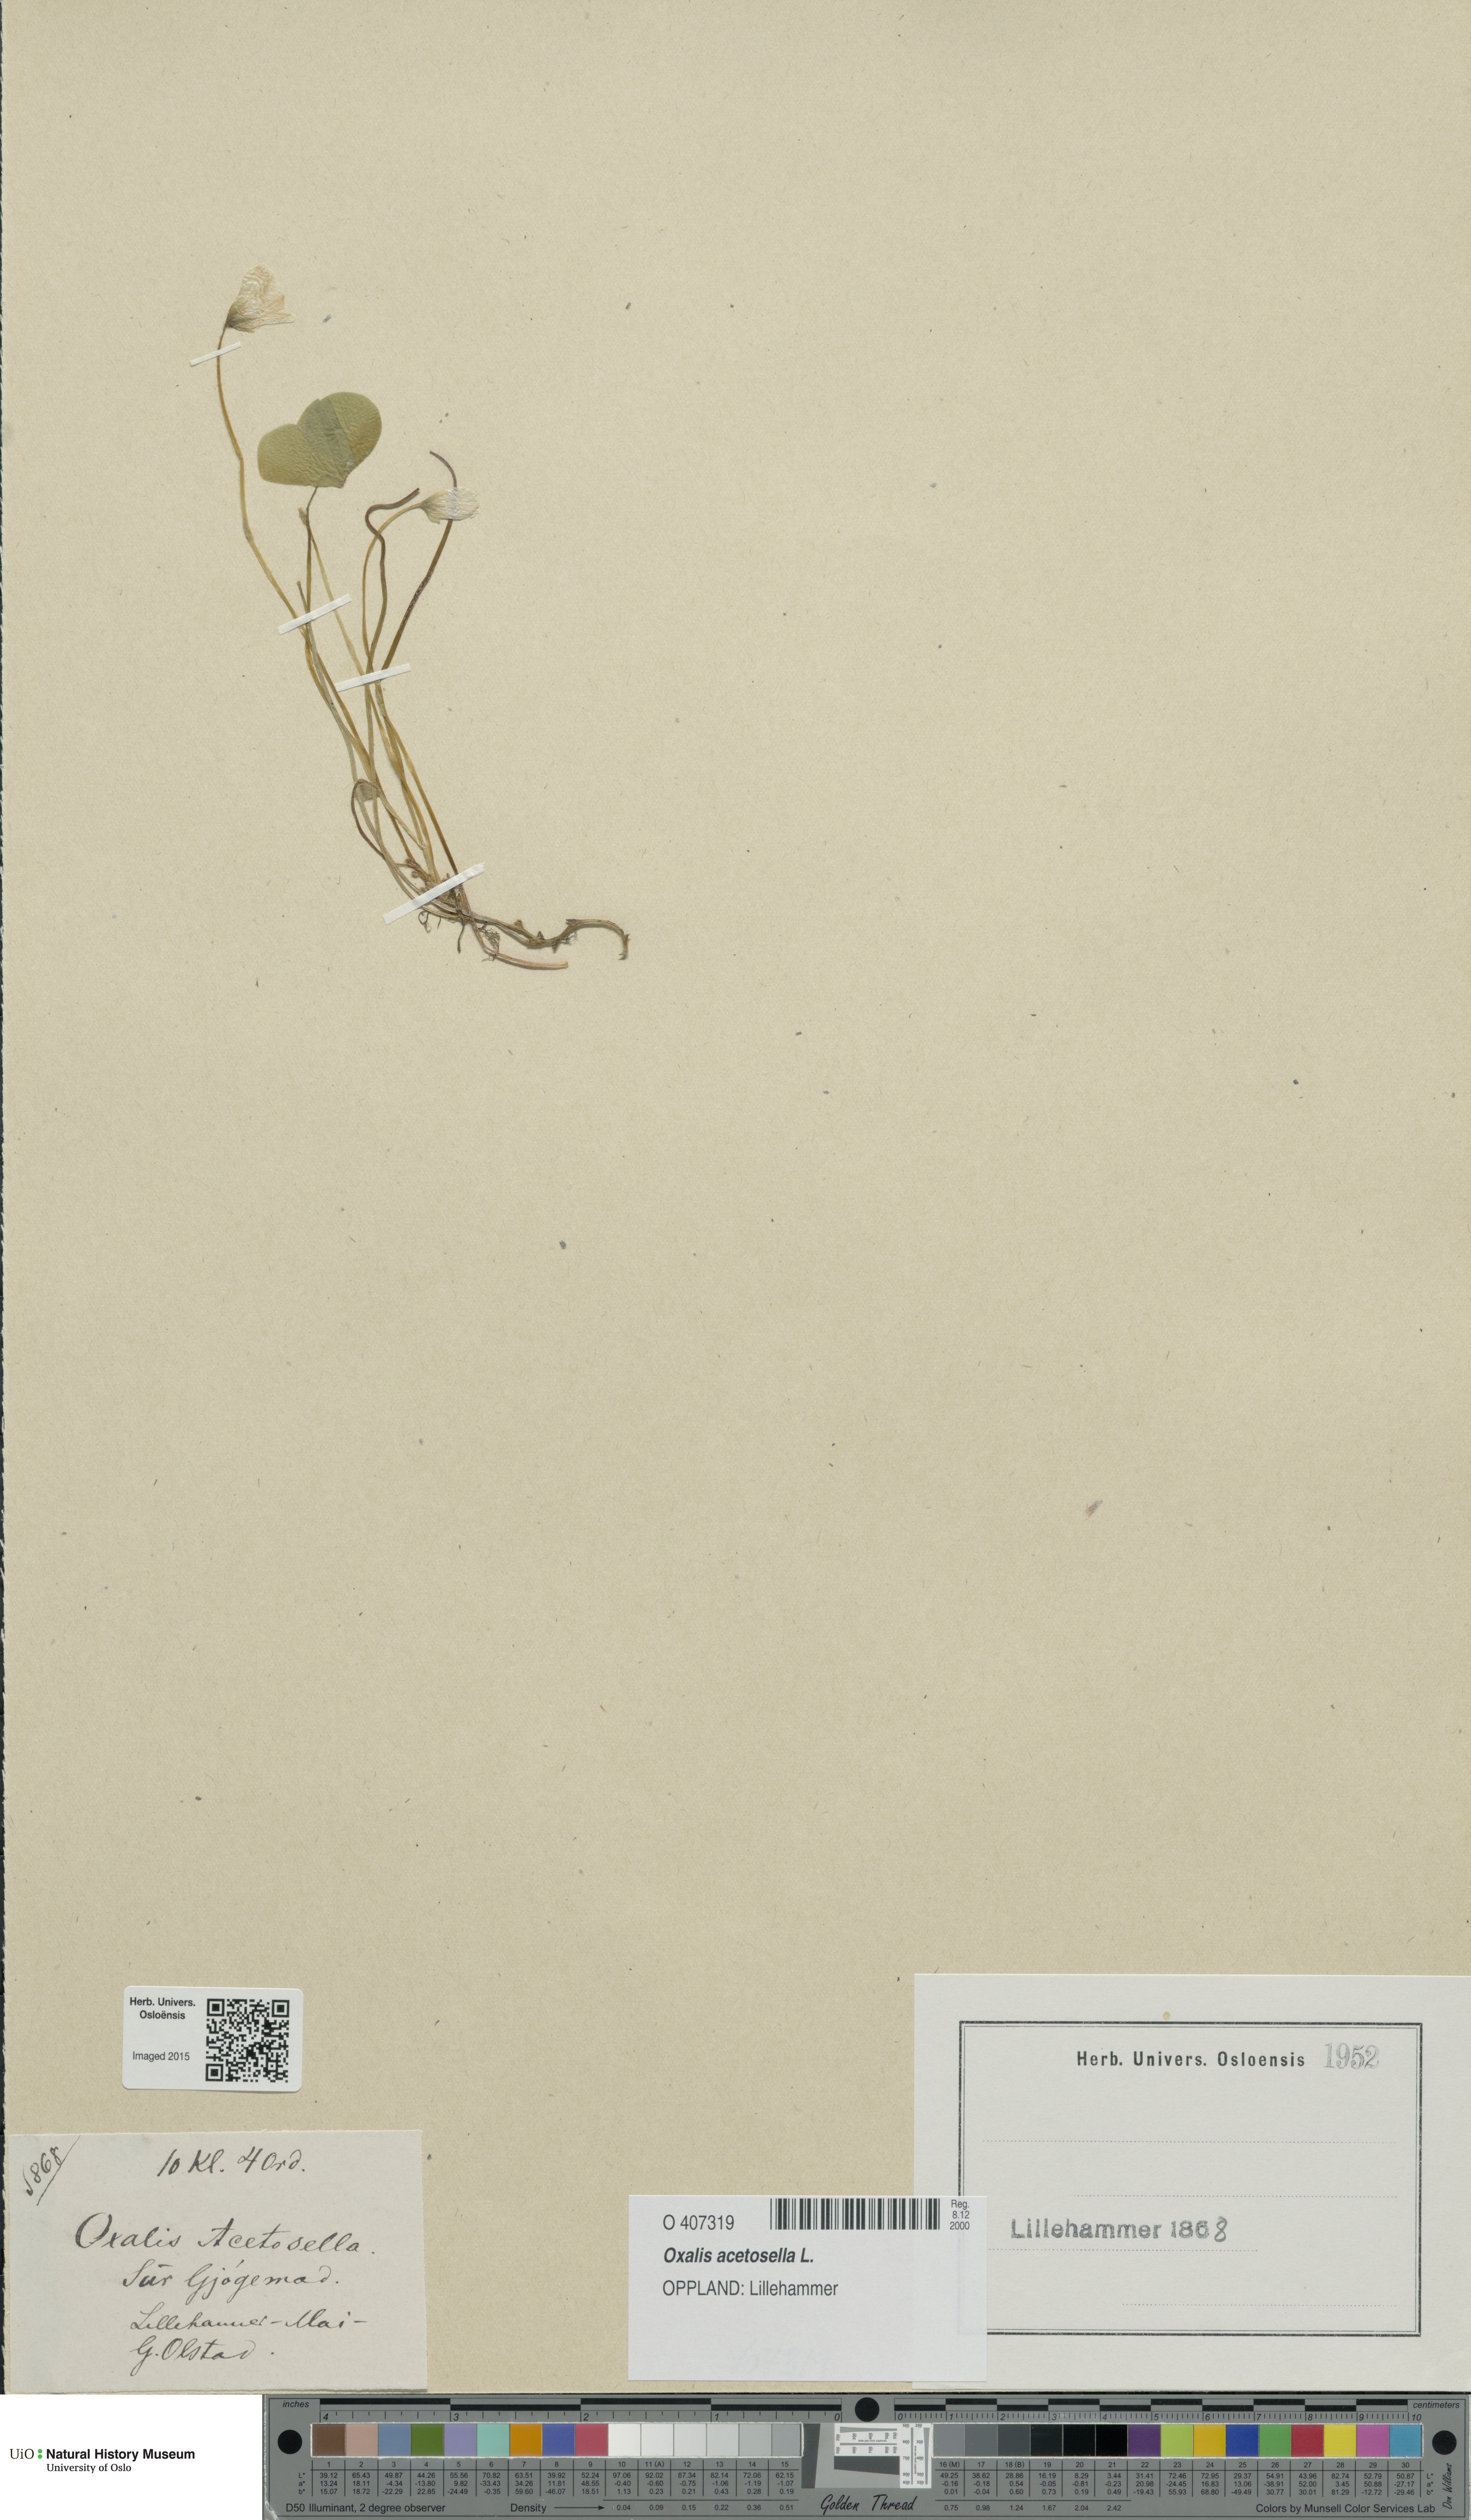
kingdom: Plantae
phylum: Tracheophyta
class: Magnoliopsida
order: Oxalidales
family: Oxalidaceae
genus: Oxalis
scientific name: Oxalis acetosella
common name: Wood-sorrel
